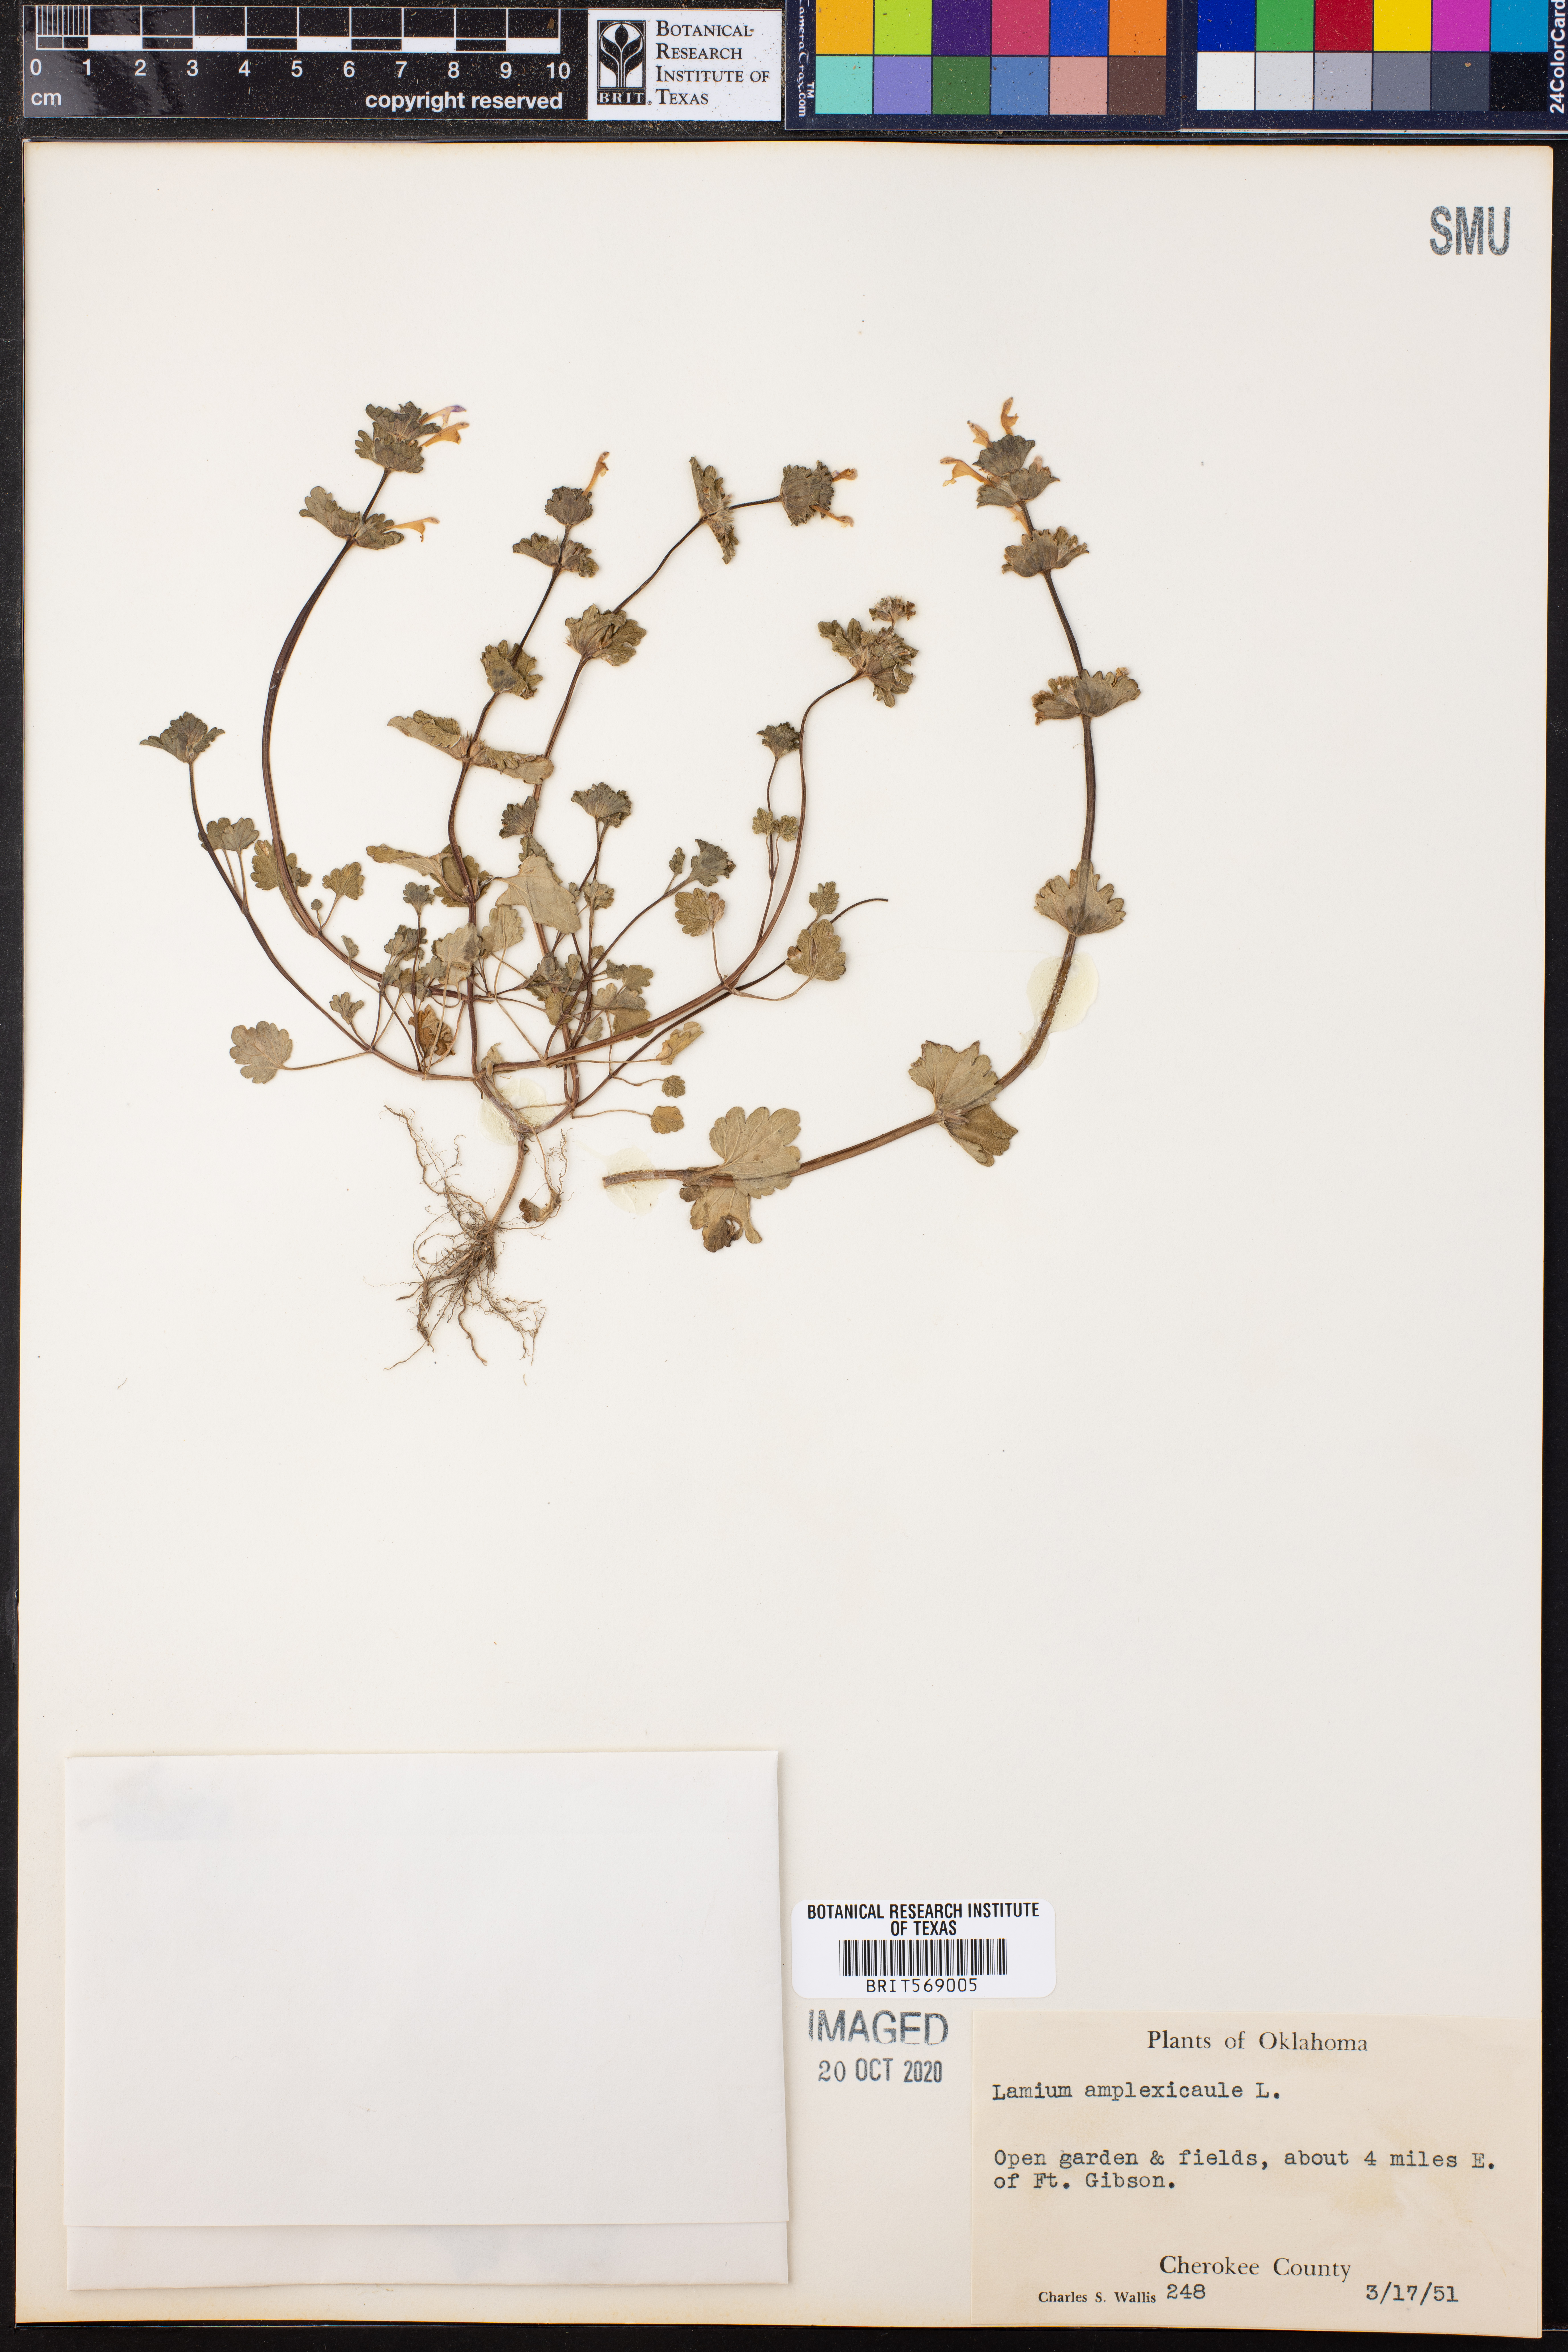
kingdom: Plantae
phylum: Tracheophyta
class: Magnoliopsida
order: Lamiales
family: Lamiaceae
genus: Lamium
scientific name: Lamium amplexicaule
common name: Henbit dead-nettle
